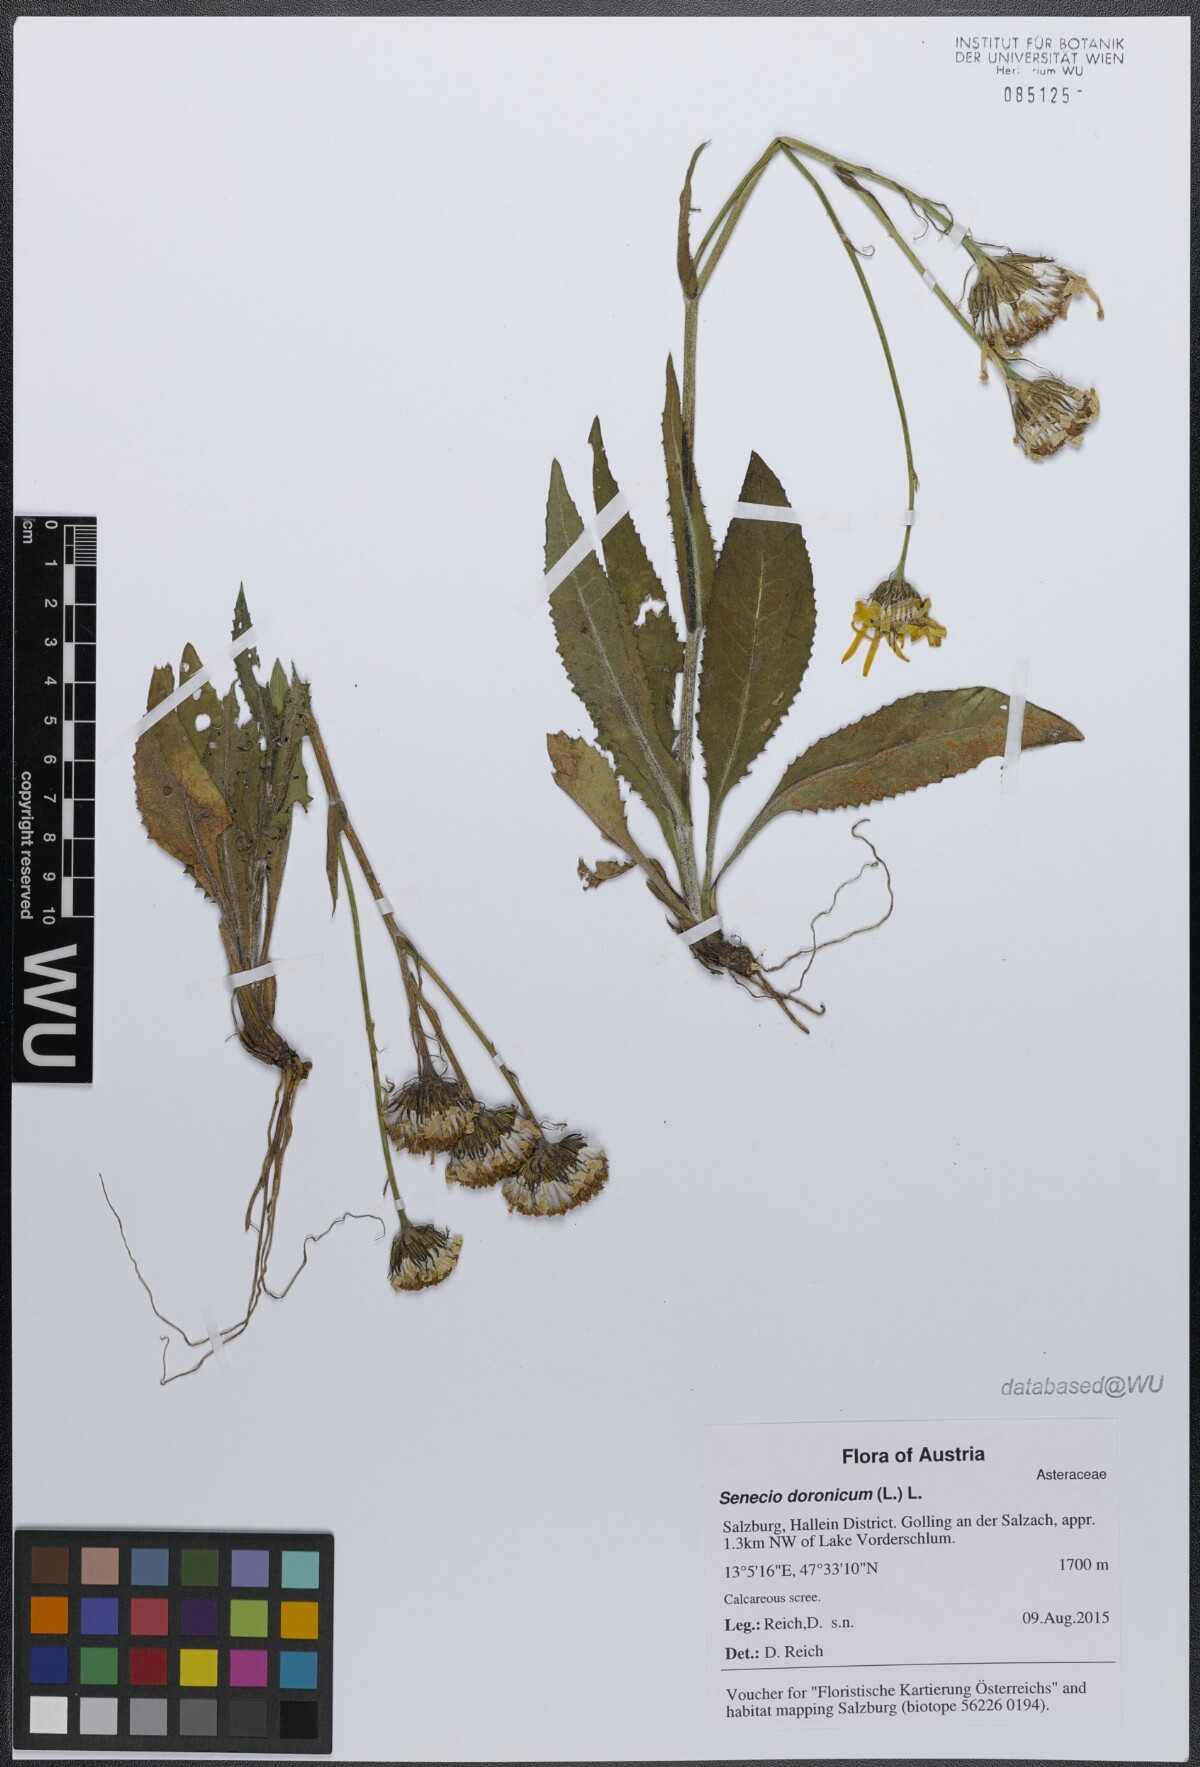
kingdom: Plantae
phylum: Tracheophyta
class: Magnoliopsida
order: Asterales
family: Asteraceae
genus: Senecio
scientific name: Senecio doronicum
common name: Chamois ragwort
